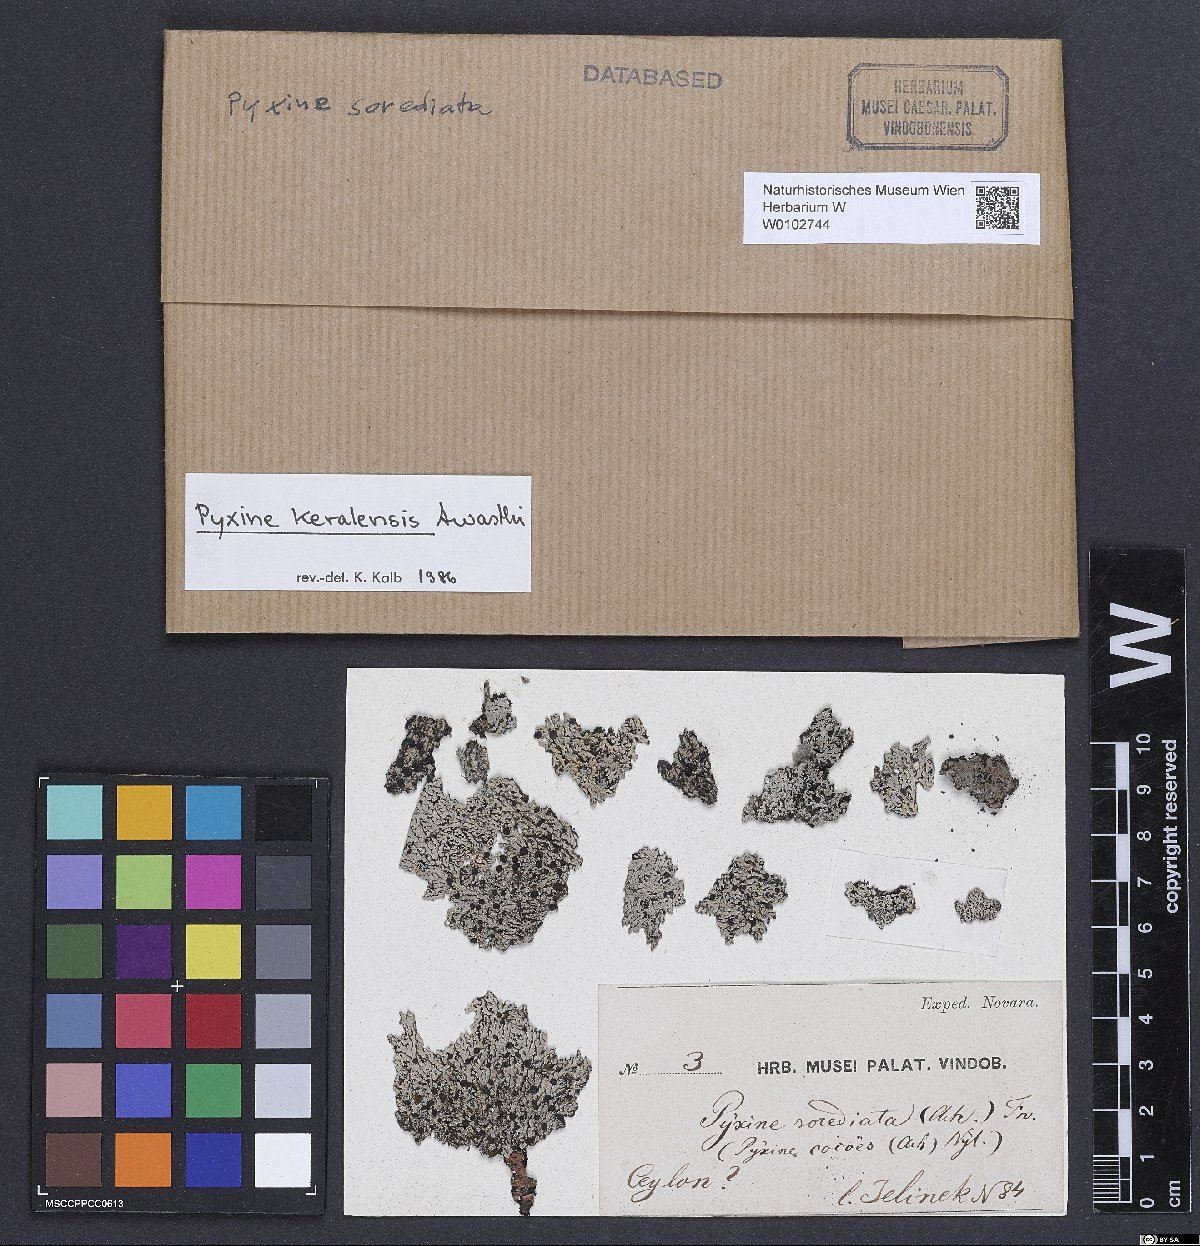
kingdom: Fungi
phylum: Ascomycota
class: Lecanoromycetes
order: Caliciales
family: Caliciaceae
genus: Pyxine
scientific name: Pyxine keralensis
